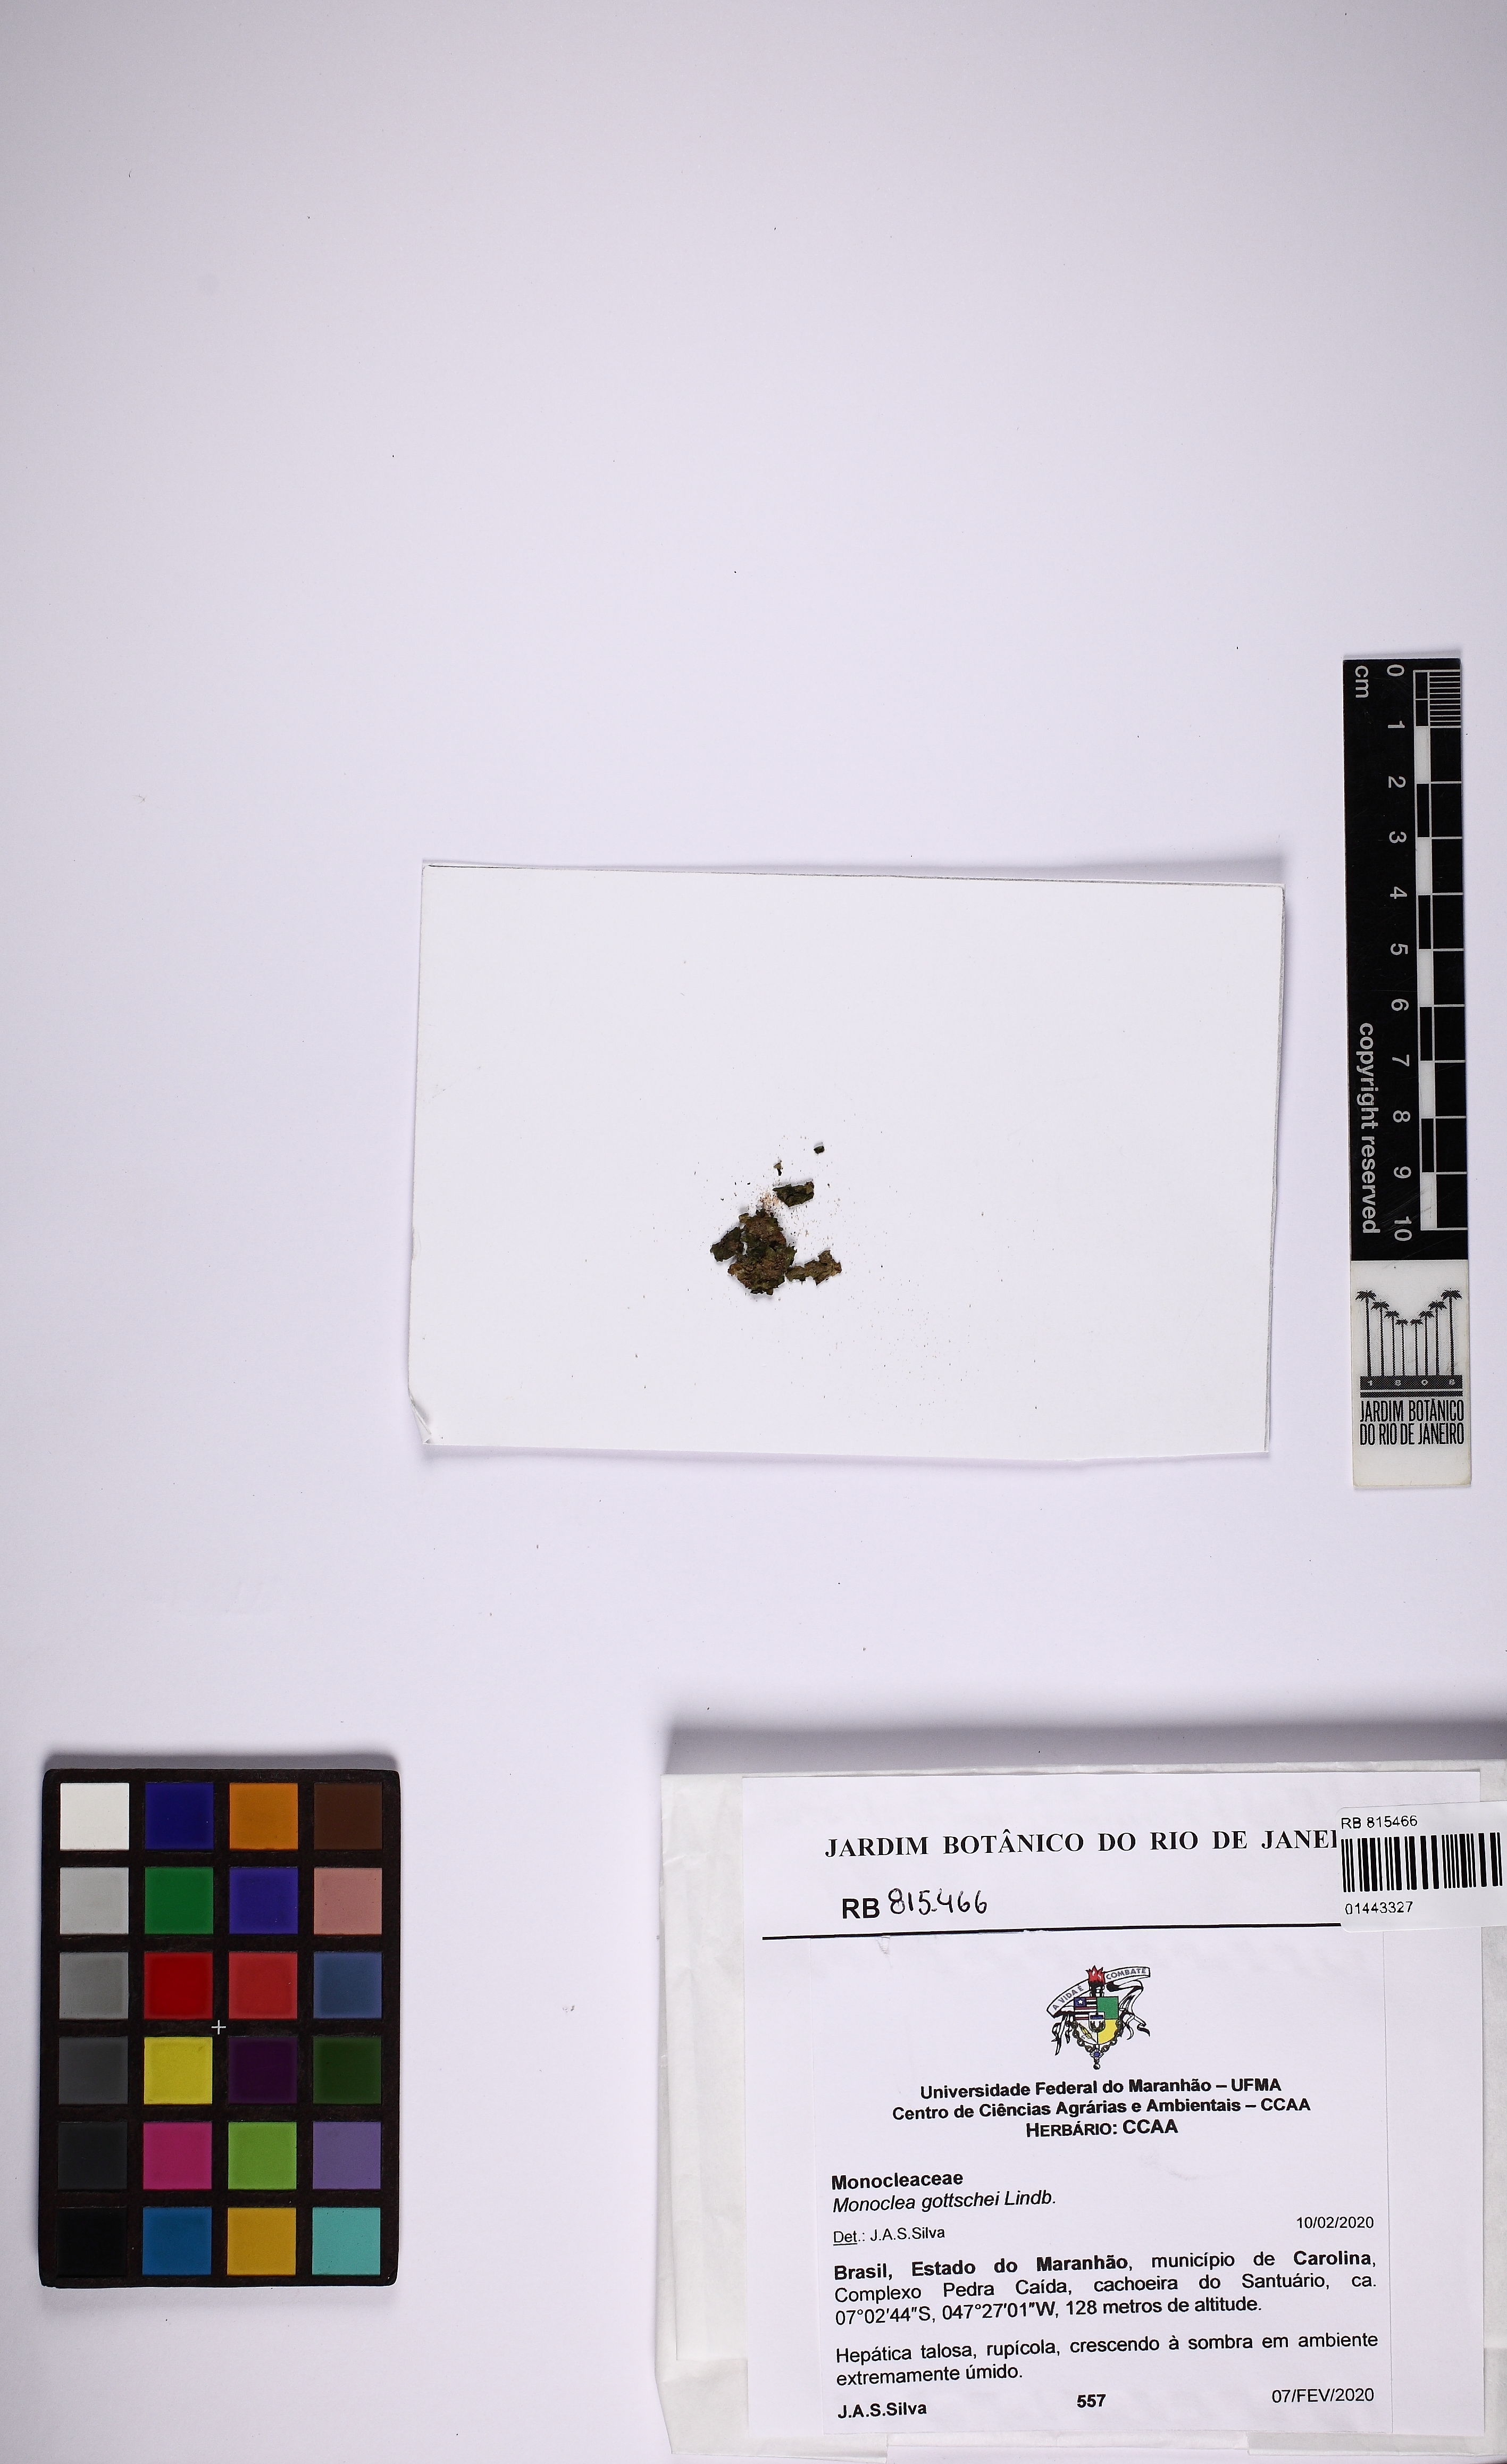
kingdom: Plantae
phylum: Marchantiophyta
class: Marchantiopsida
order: Marchantiales
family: Monocleaceae
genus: Monoclea
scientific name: Monoclea gottschei
